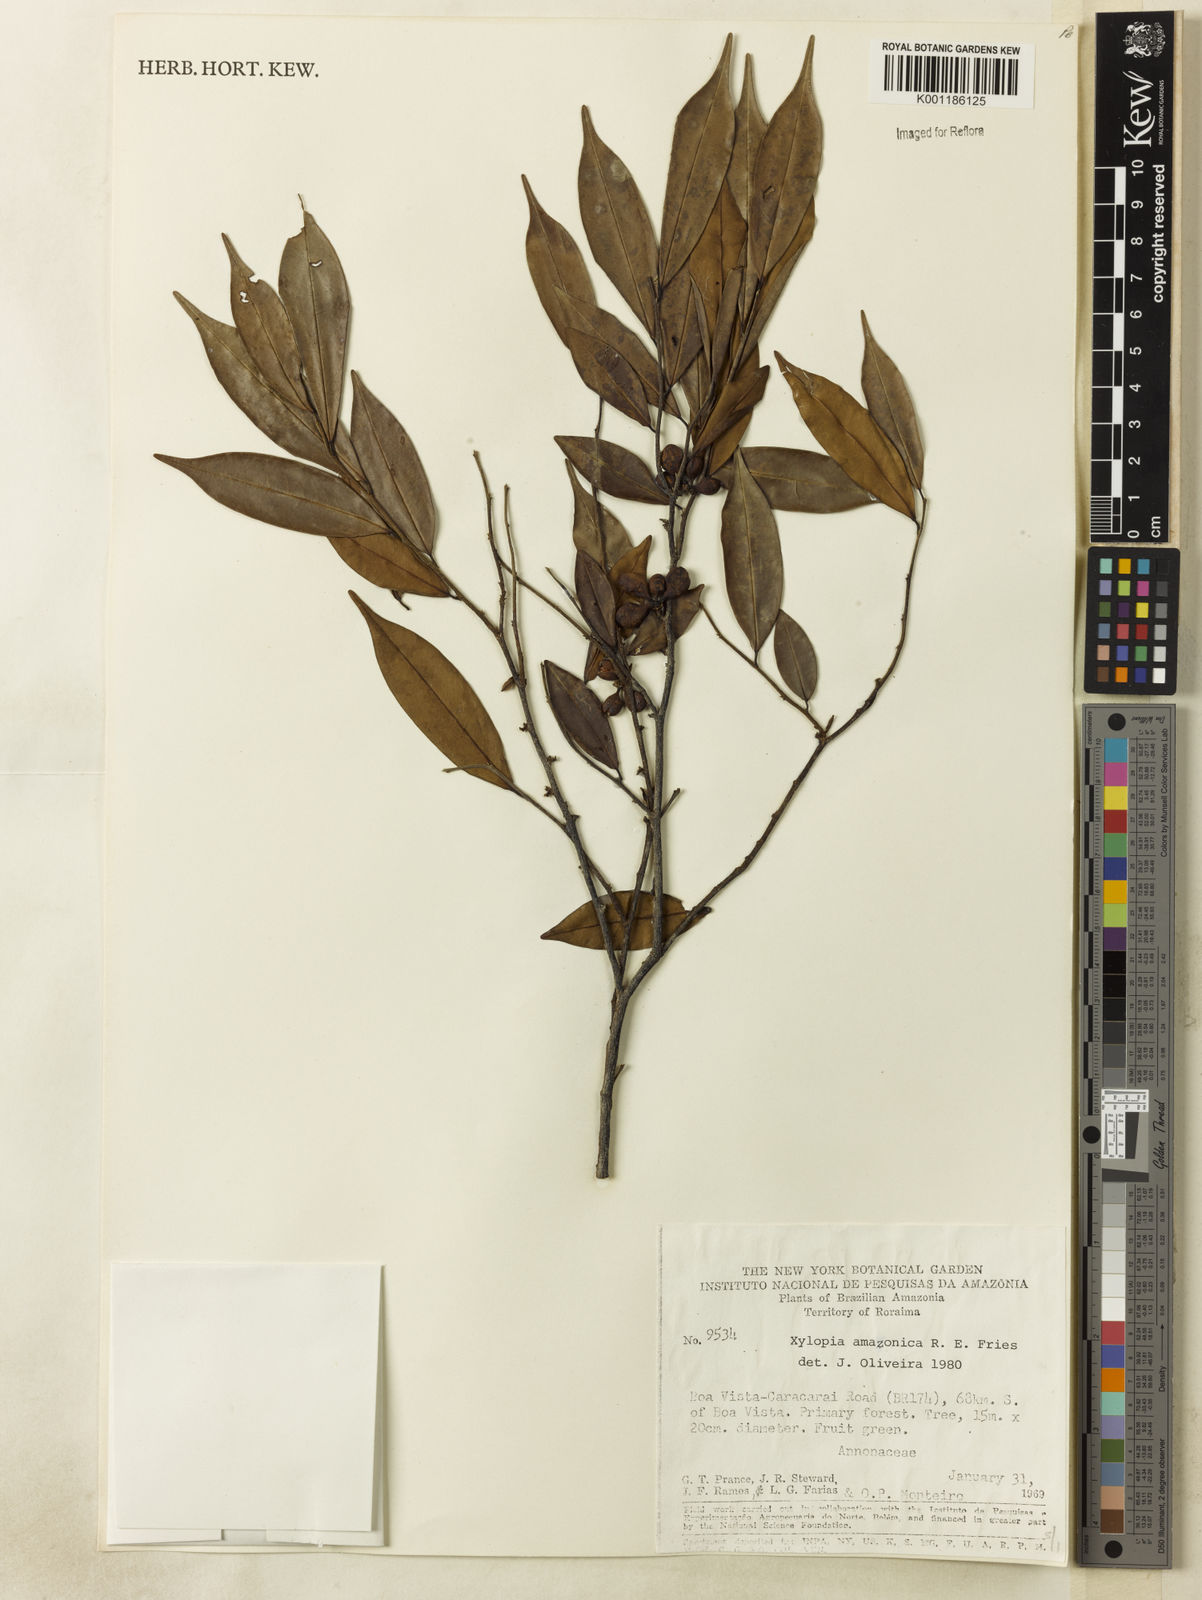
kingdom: Plantae
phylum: Tracheophyta
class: Magnoliopsida
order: Magnoliales
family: Annonaceae
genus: Xylopia
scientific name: Xylopia amazonica
